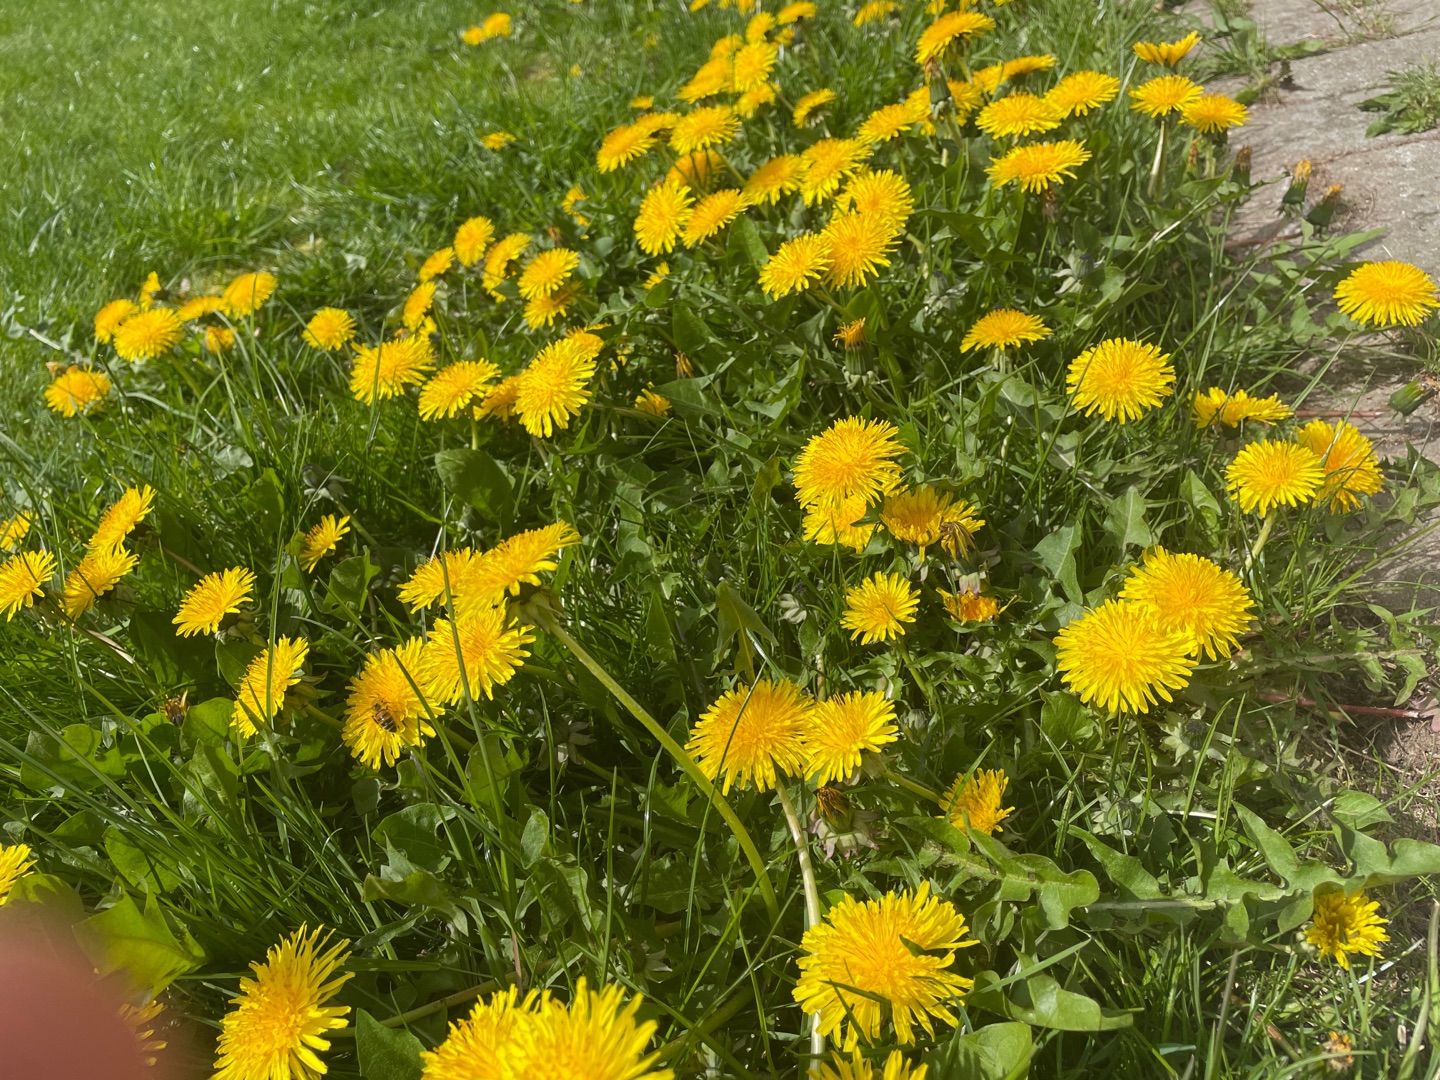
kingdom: Plantae
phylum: Tracheophyta
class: Magnoliopsida
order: Asterales
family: Asteraceae
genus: Taraxacum
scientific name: Taraxacum
